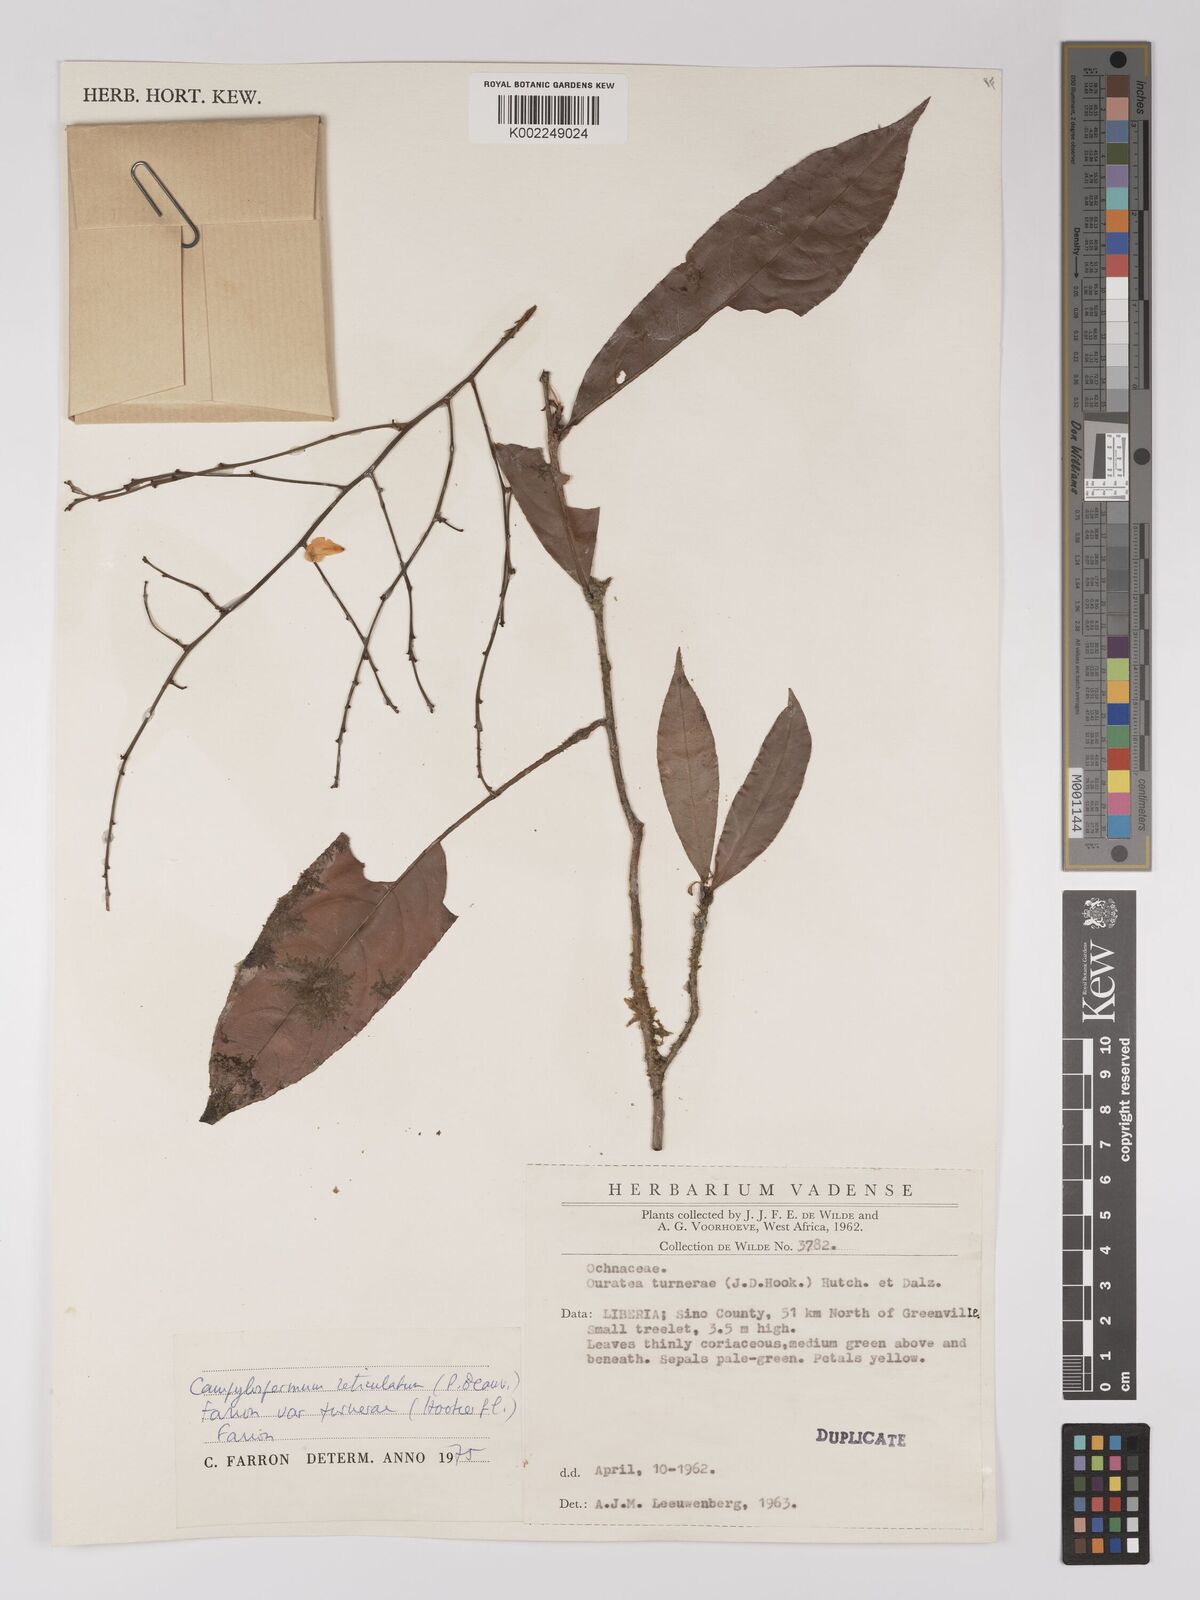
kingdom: Plantae
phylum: Tracheophyta
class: Magnoliopsida
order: Malpighiales
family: Ochnaceae
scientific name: Ochnaceae
